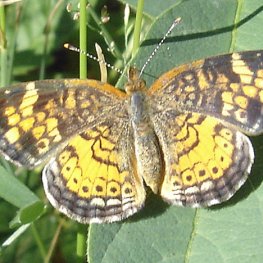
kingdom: Animalia
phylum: Arthropoda
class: Insecta
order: Lepidoptera
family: Nymphalidae
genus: Phyciodes
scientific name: Phyciodes tharos
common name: Northern Crescent
